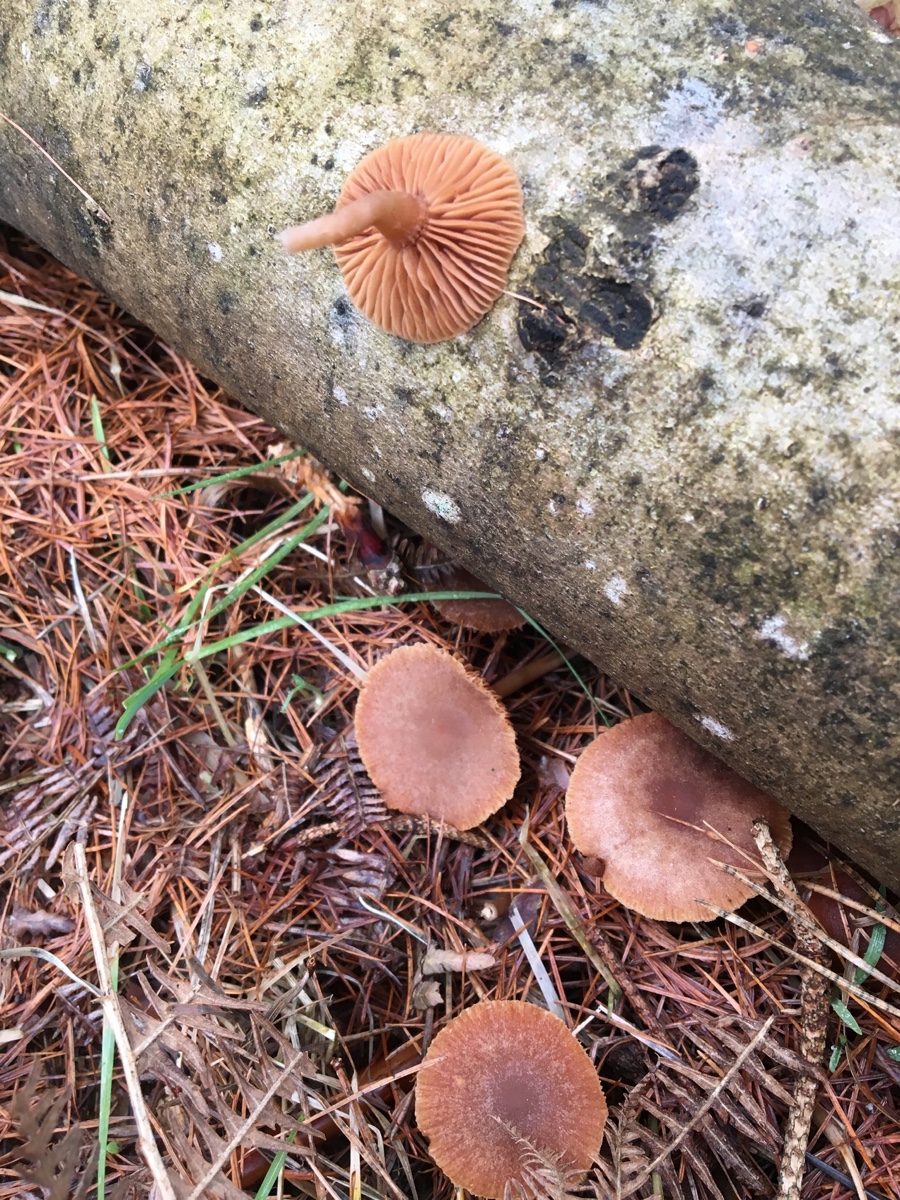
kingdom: Fungi
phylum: Basidiomycota
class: Agaricomycetes
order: Agaricales
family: Tubariaceae
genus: Tubaria
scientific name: Tubaria furfuracea
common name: kliddet fnughat
